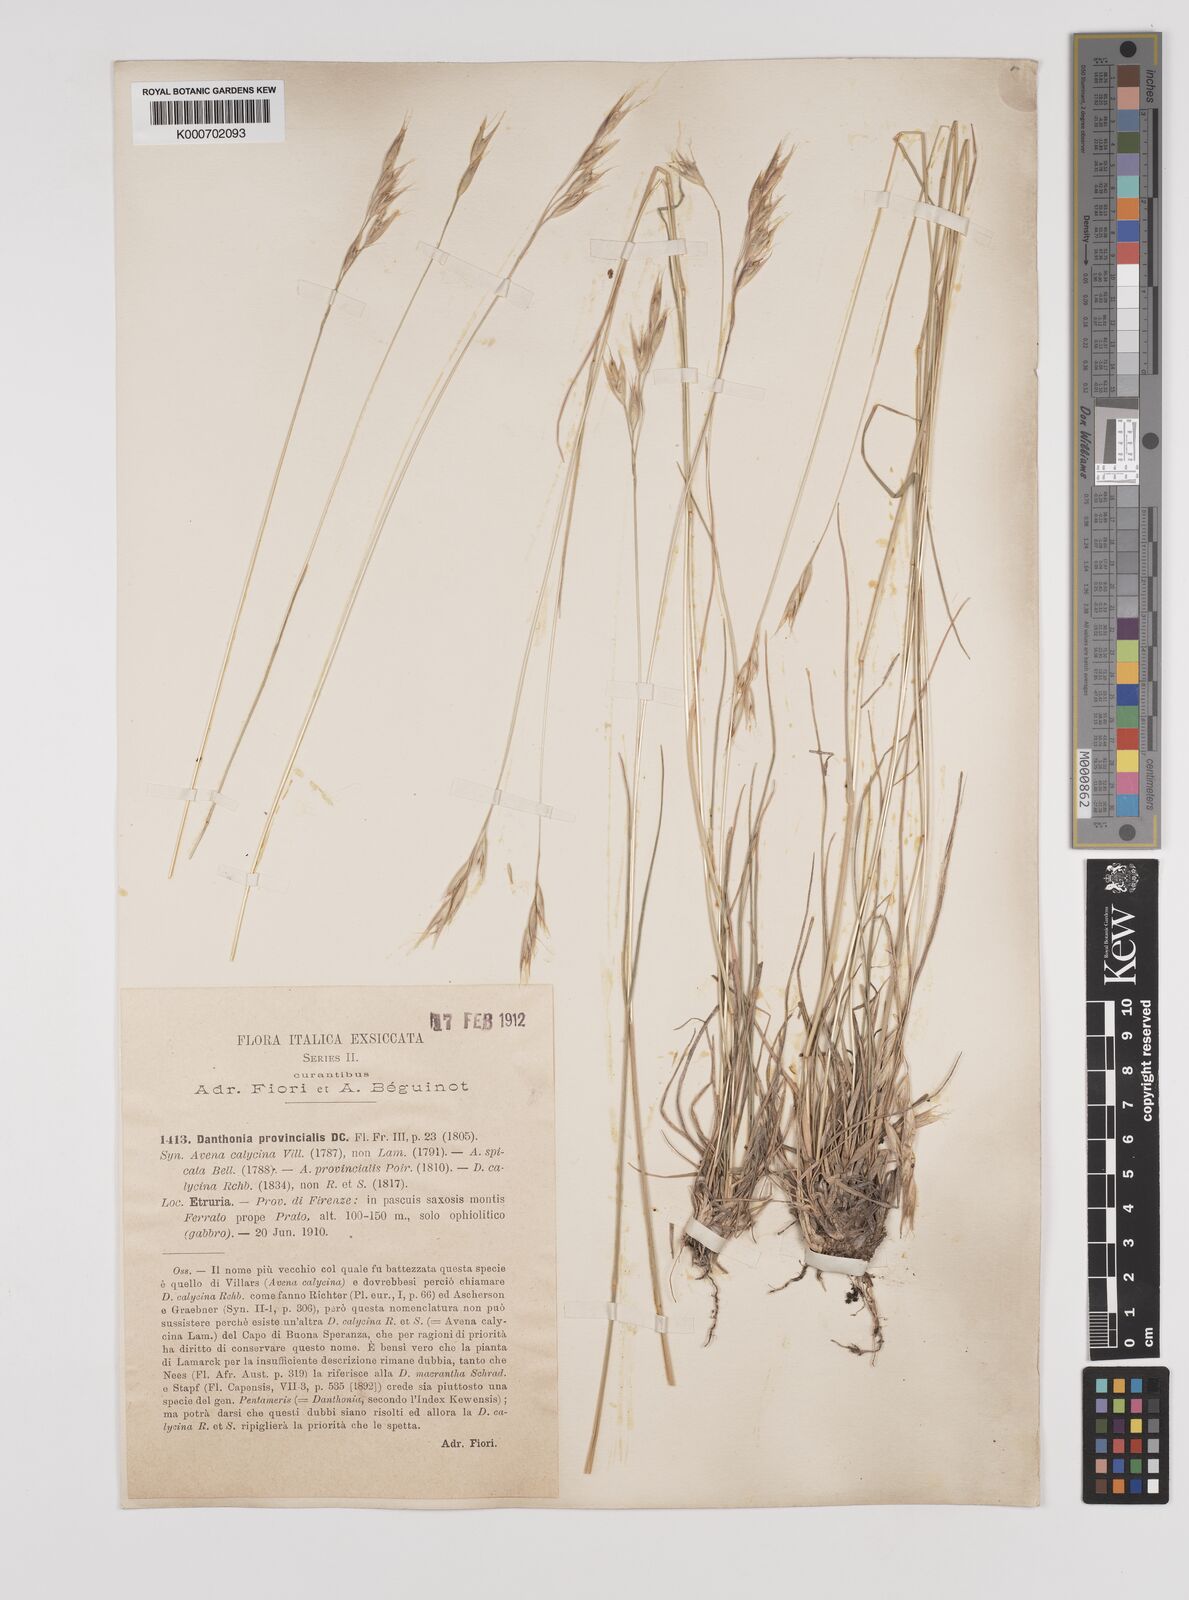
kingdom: Plantae
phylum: Tracheophyta
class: Liliopsida
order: Poales
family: Poaceae
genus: Danthonia
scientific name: Danthonia alpina
